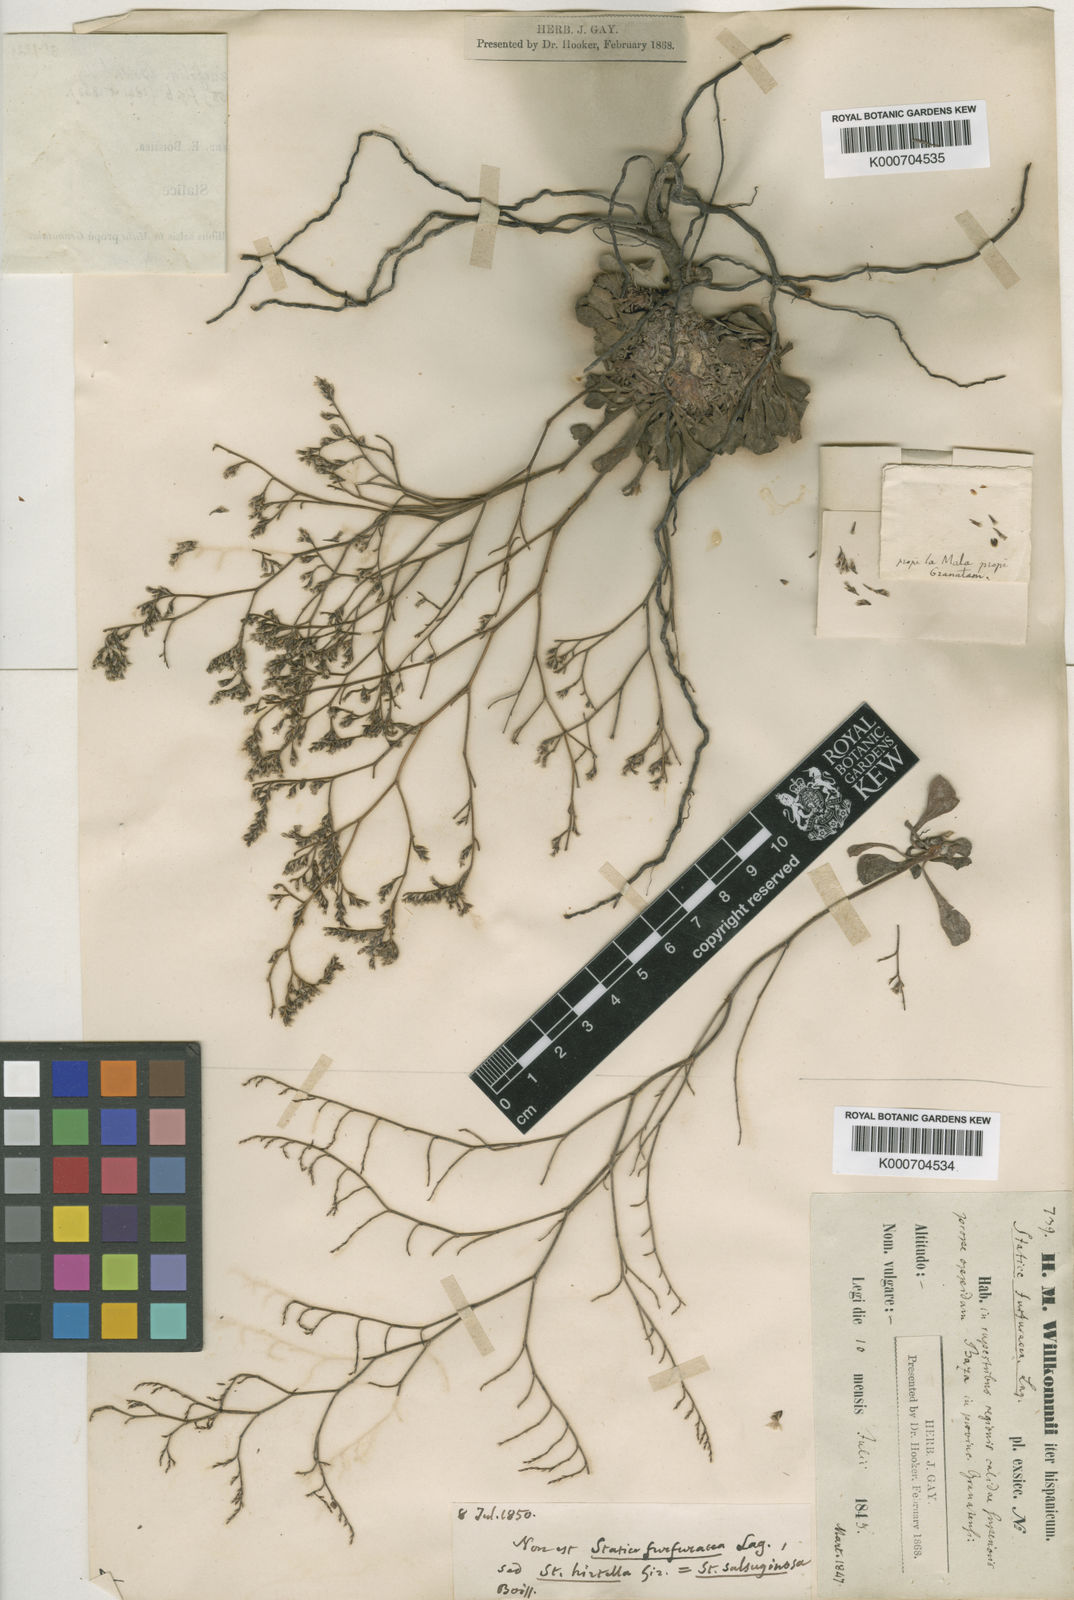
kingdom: Plantae
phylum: Tracheophyta
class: Magnoliopsida
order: Caryophyllales
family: Plumbaginaceae
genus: Limonium
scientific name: Limonium supinum
